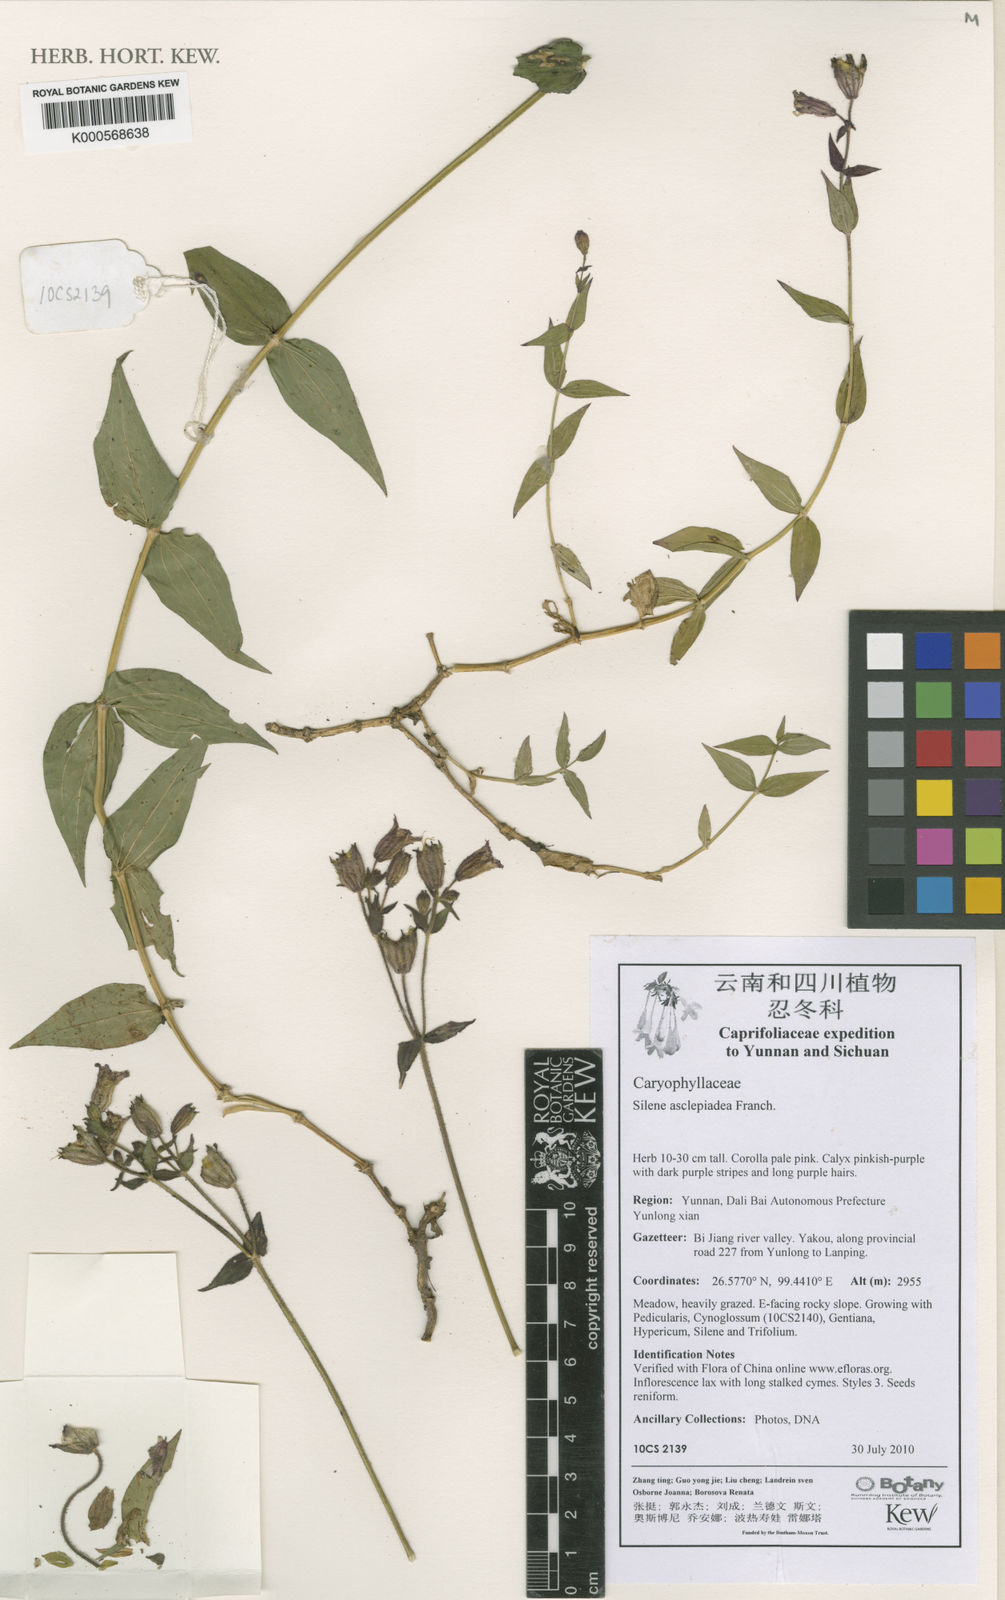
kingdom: Plantae
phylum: Tracheophyta
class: Magnoliopsida
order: Caryophyllales
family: Caryophyllaceae
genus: Silene
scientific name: Silene asclepiadea
